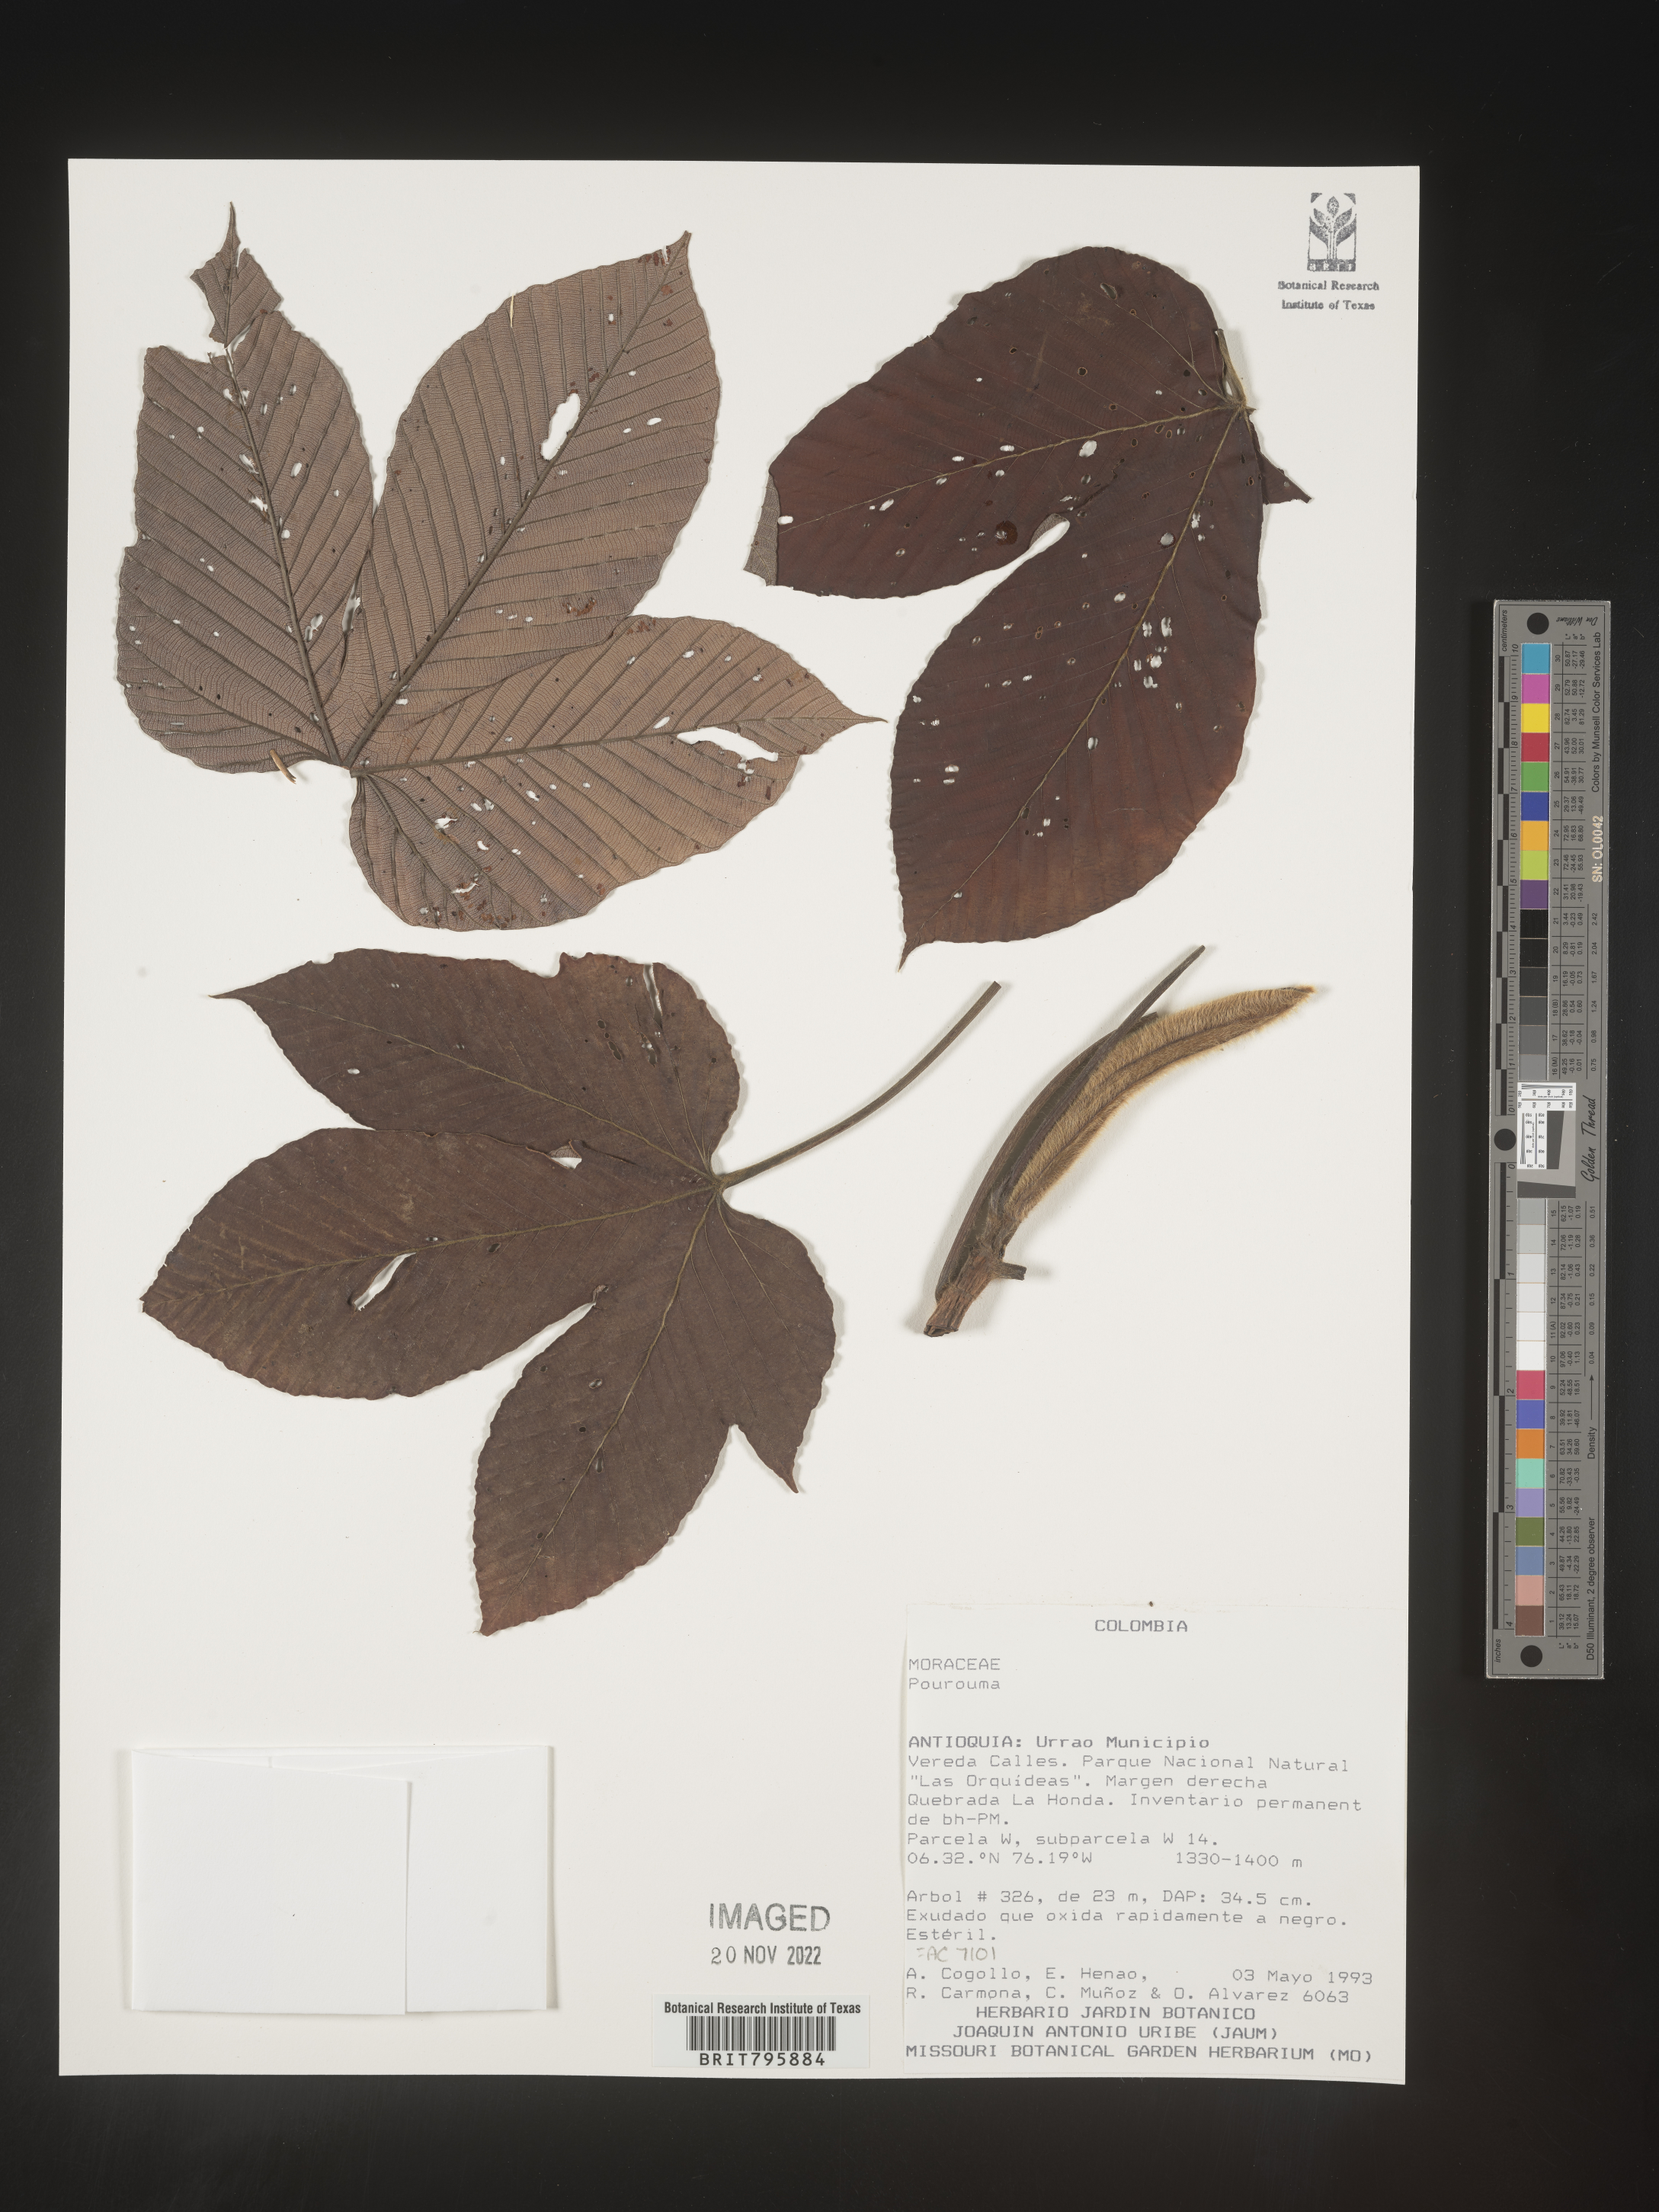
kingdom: Plantae
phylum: Tracheophyta
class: Magnoliopsida
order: Rosales
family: Urticaceae
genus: Pourouma
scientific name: Pourouma
